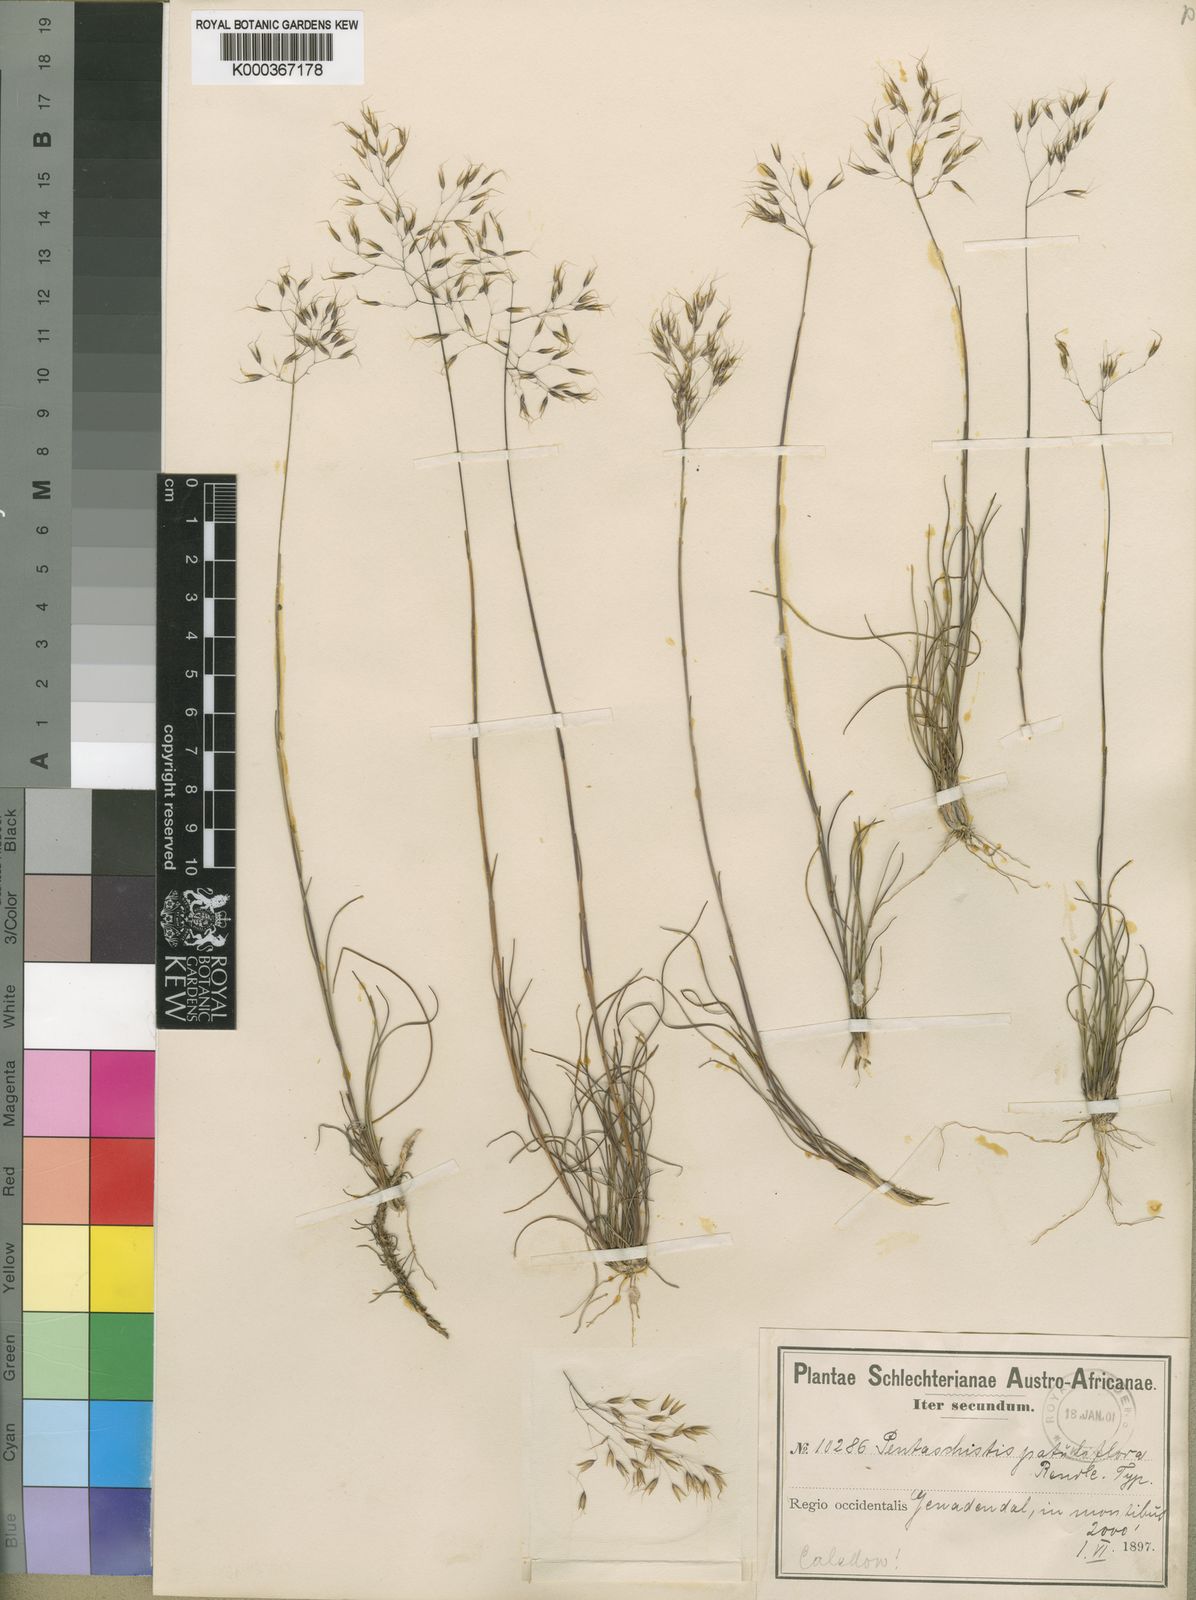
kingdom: Plantae
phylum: Tracheophyta
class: Liliopsida
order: Poales
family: Poaceae
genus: Pentameris
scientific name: Pentameris cirrhulosa
